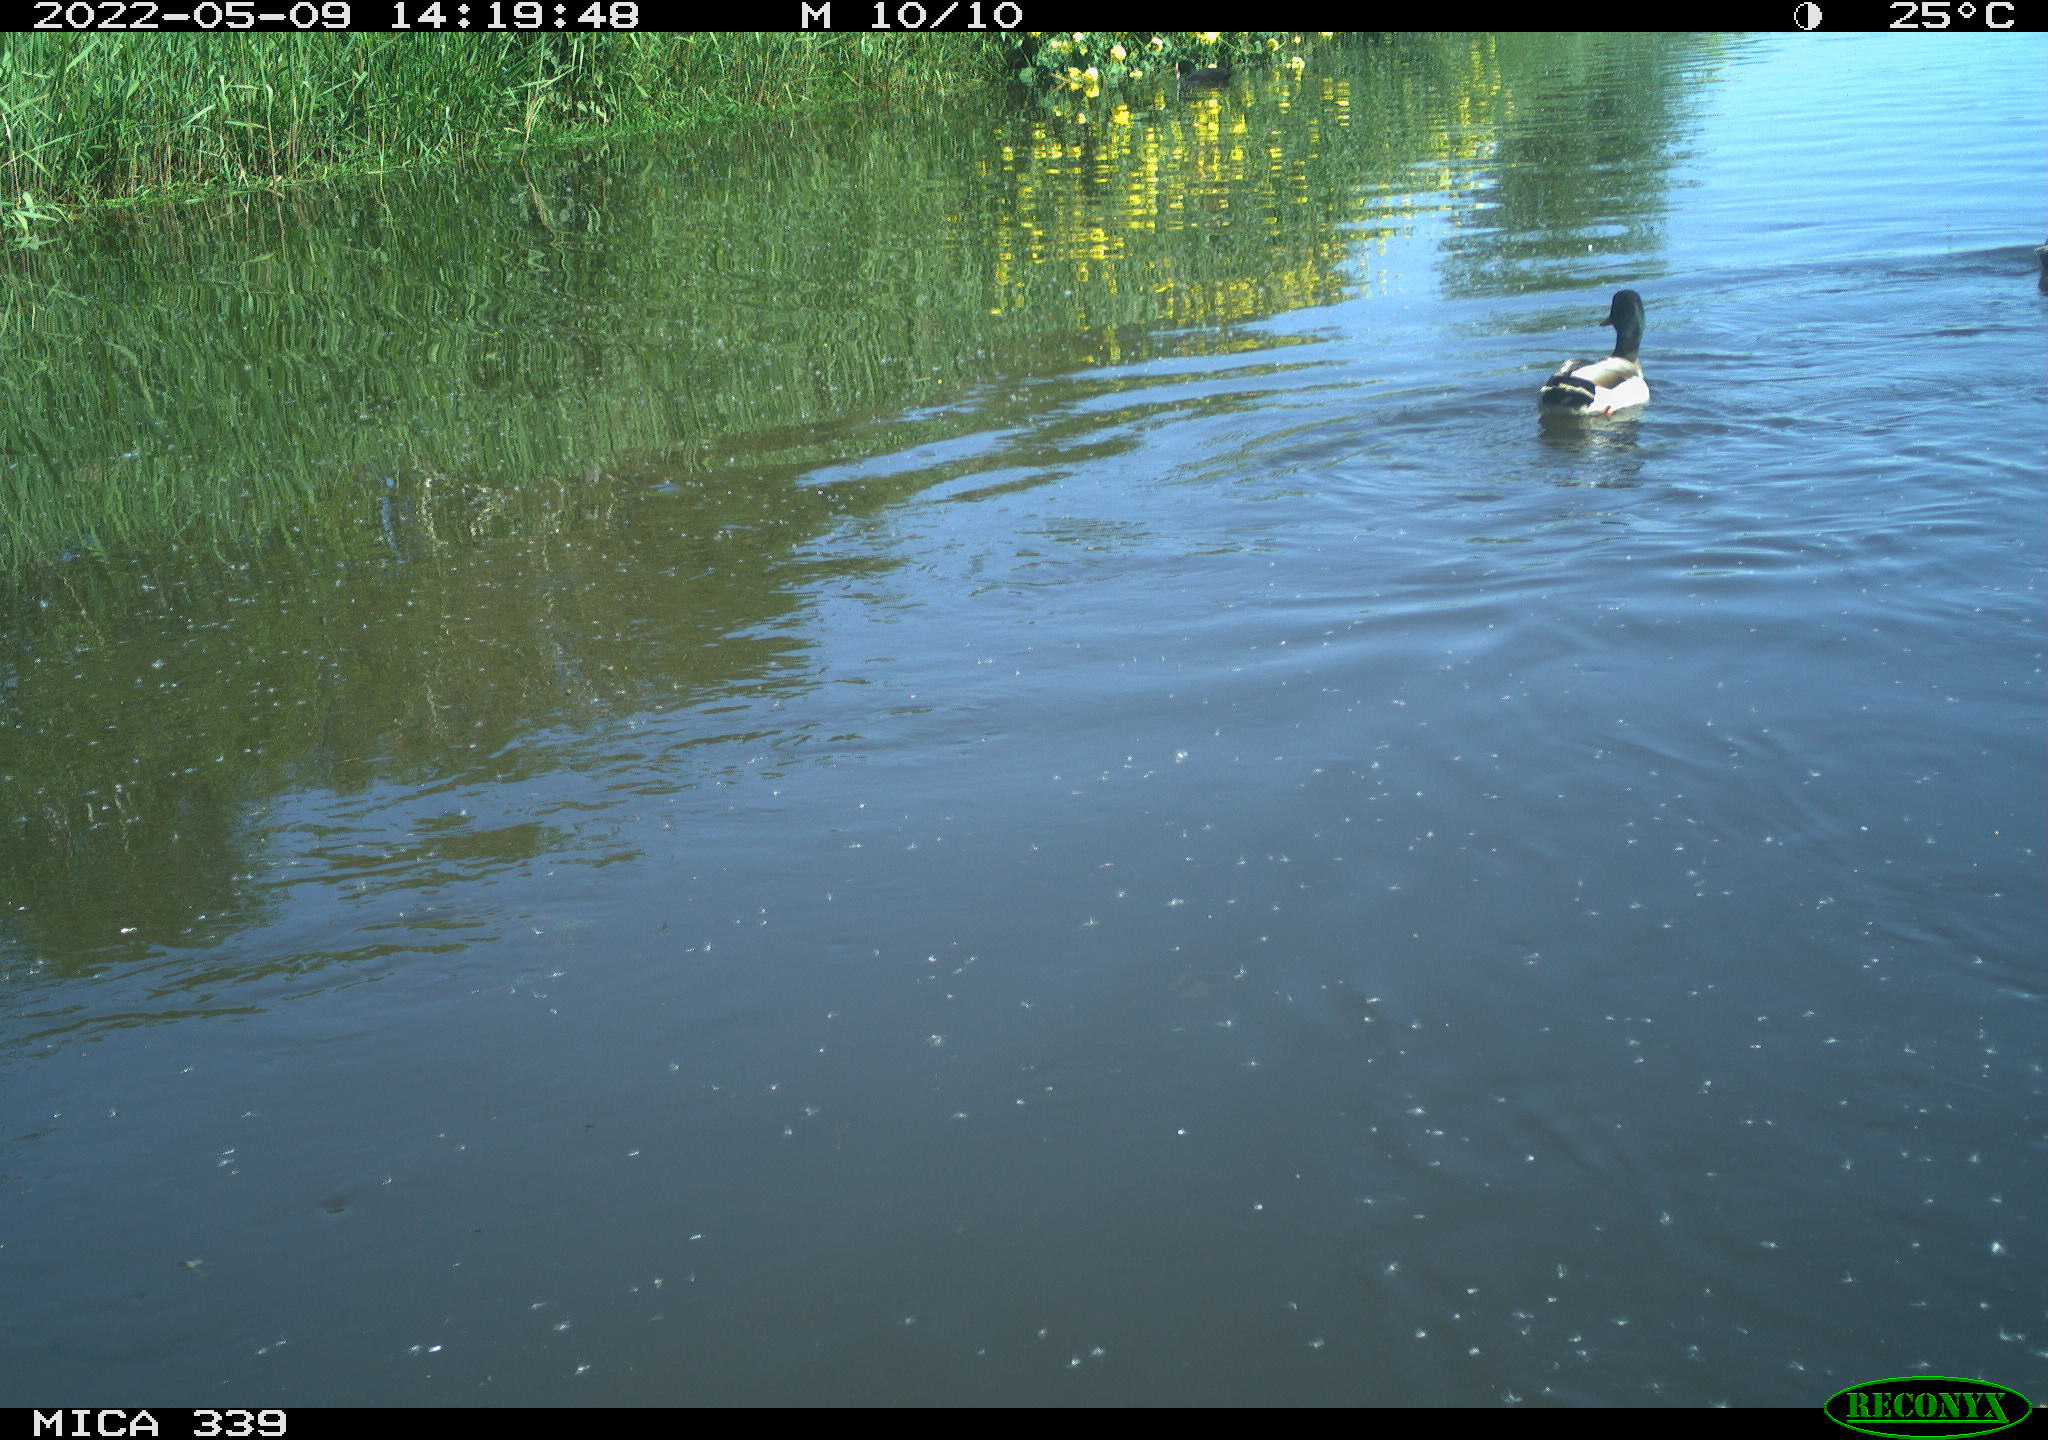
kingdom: Animalia
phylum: Chordata
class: Aves
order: Anseriformes
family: Anatidae
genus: Anas
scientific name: Anas platyrhynchos
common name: Mallard
